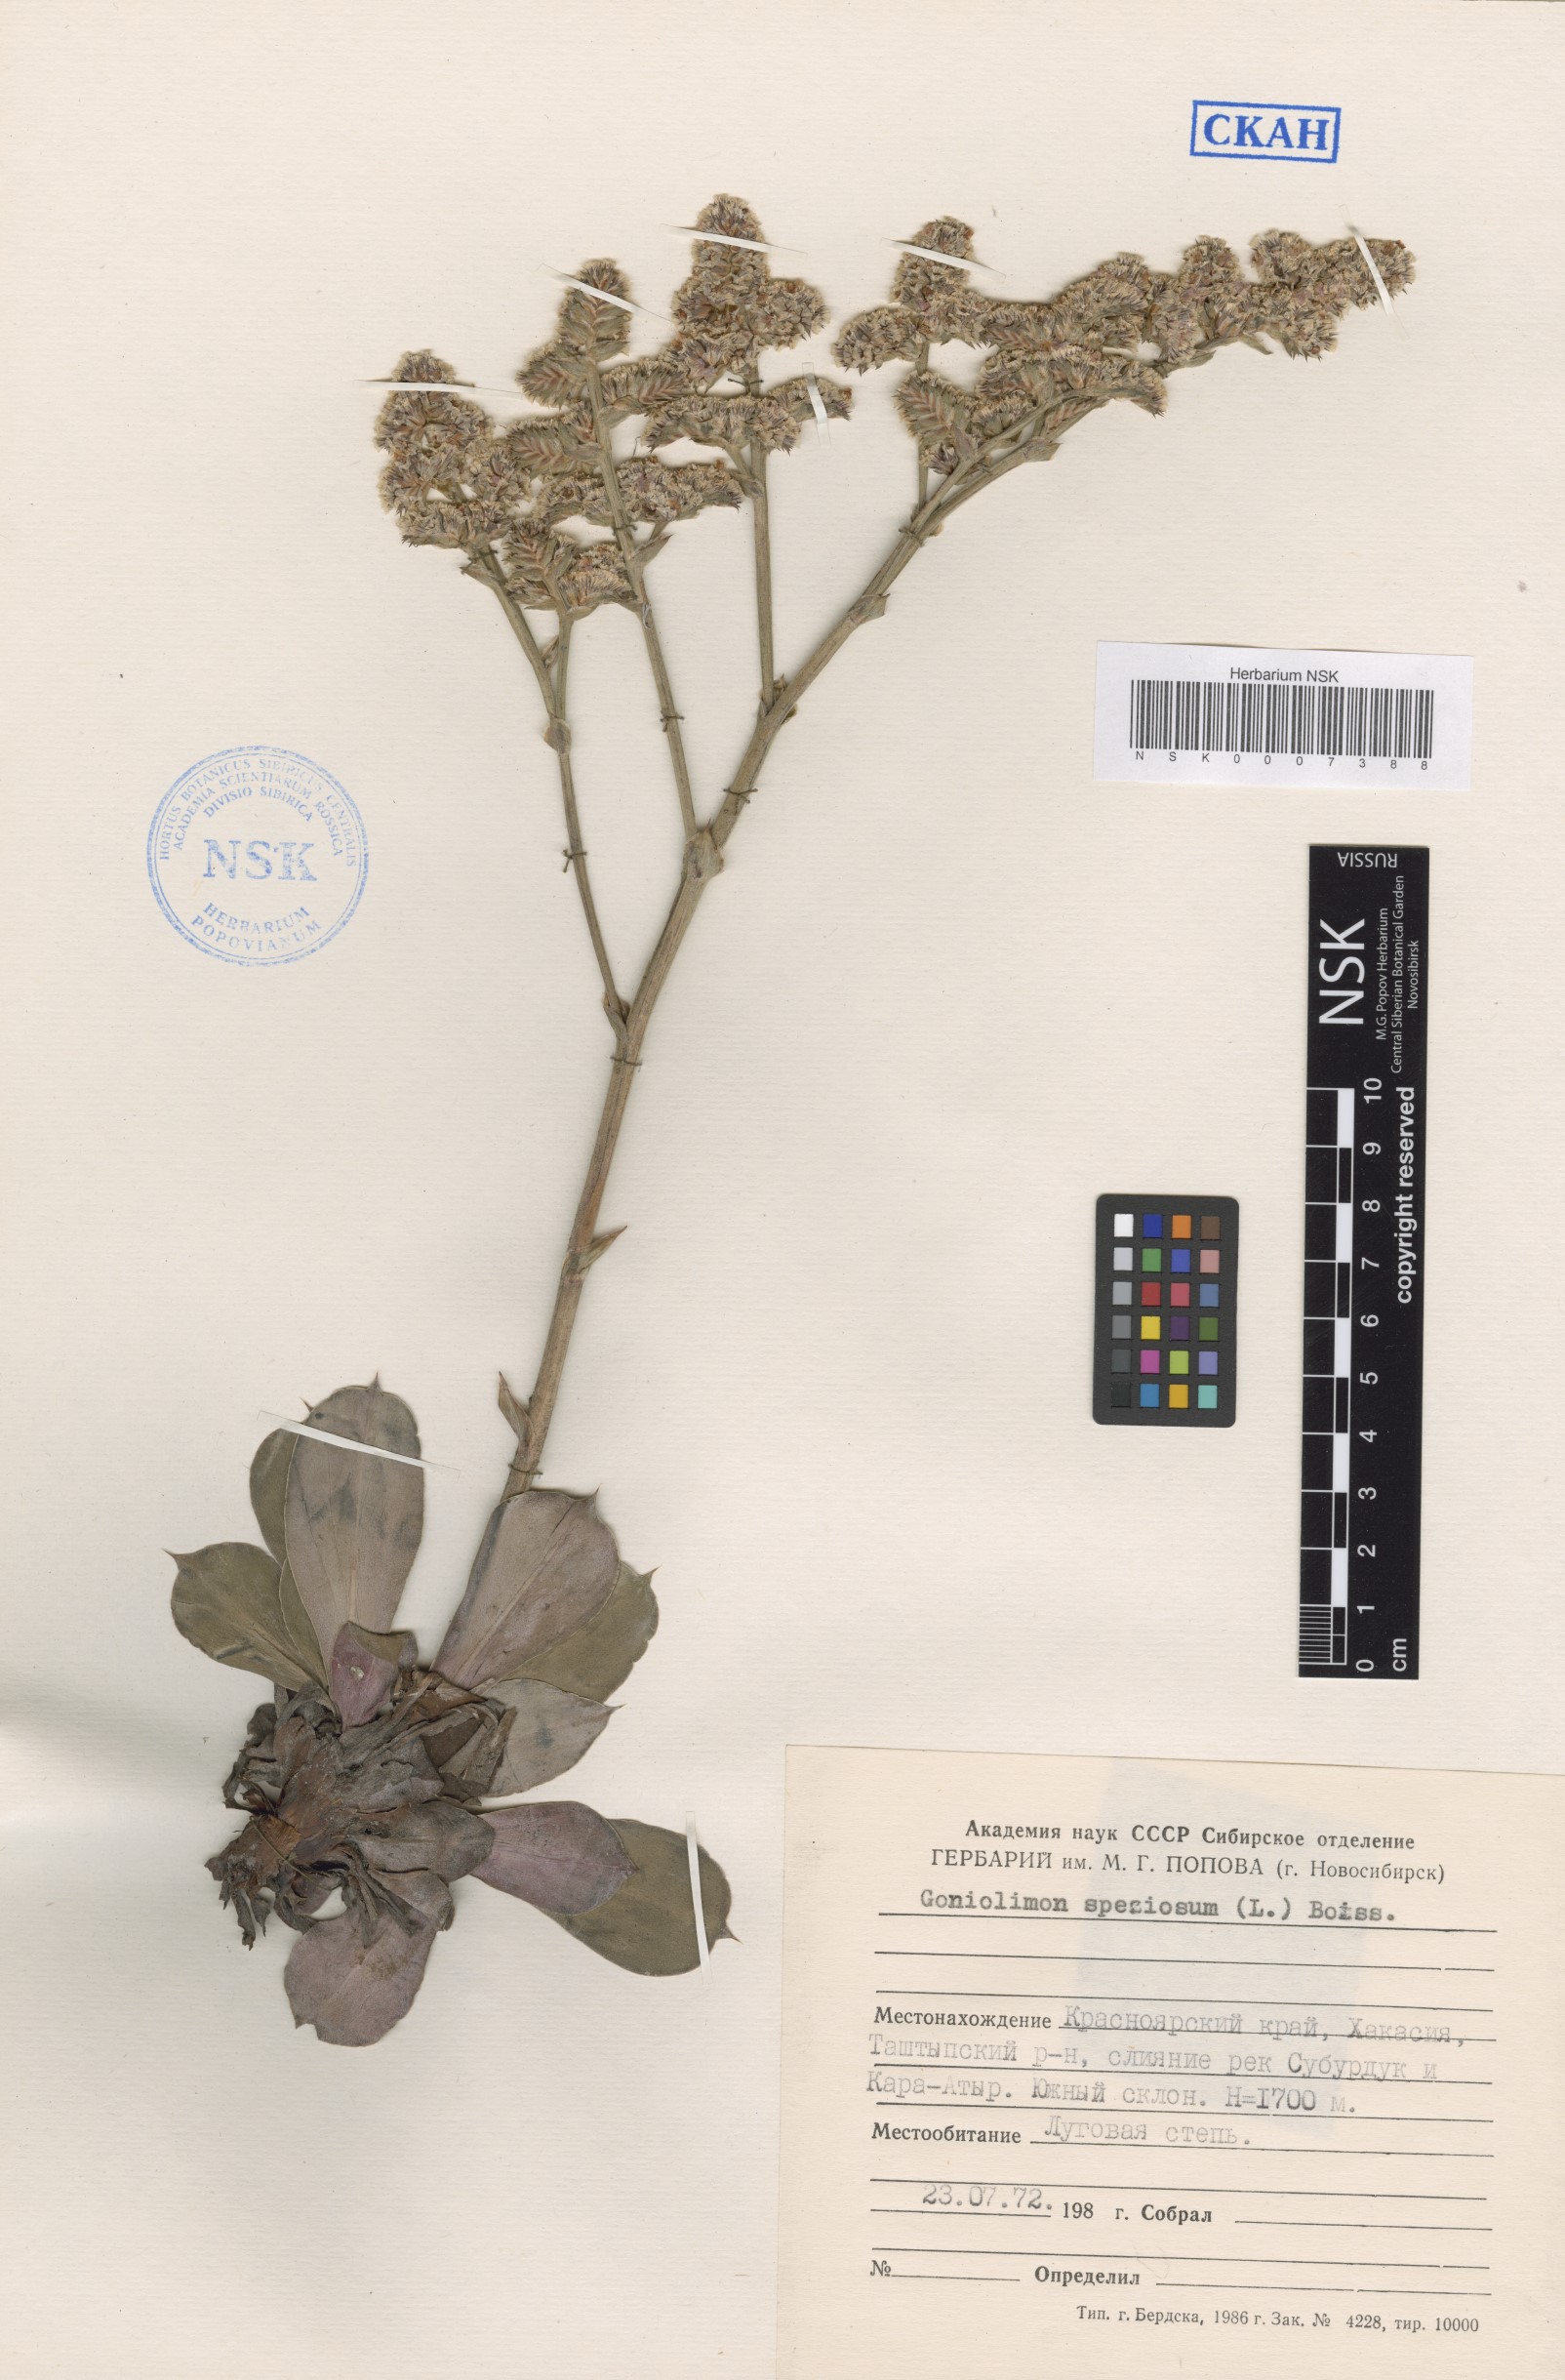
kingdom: Plantae
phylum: Tracheophyta
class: Magnoliopsida
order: Caryophyllales
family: Plumbaginaceae
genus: Goniolimon
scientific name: Goniolimon speciosum
